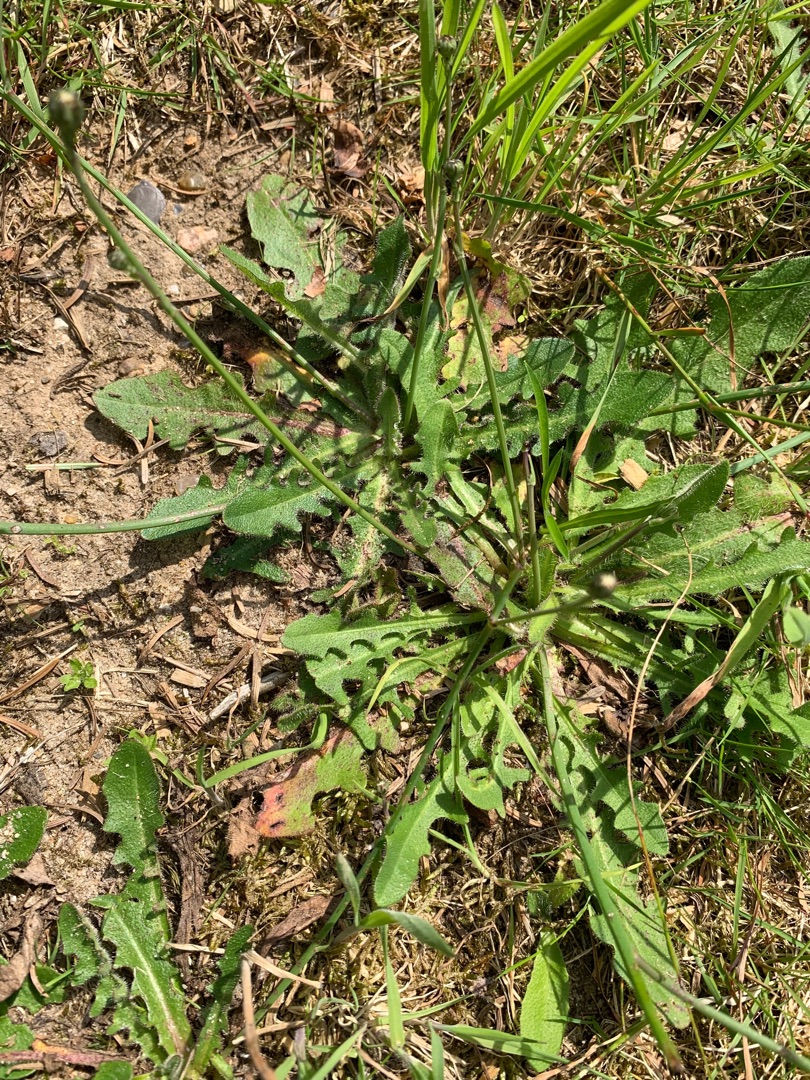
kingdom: Plantae
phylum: Tracheophyta
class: Magnoliopsida
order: Asterales
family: Asteraceae
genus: Hypochaeris
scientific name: Hypochaeris radicata
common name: Almindelig kongepen
